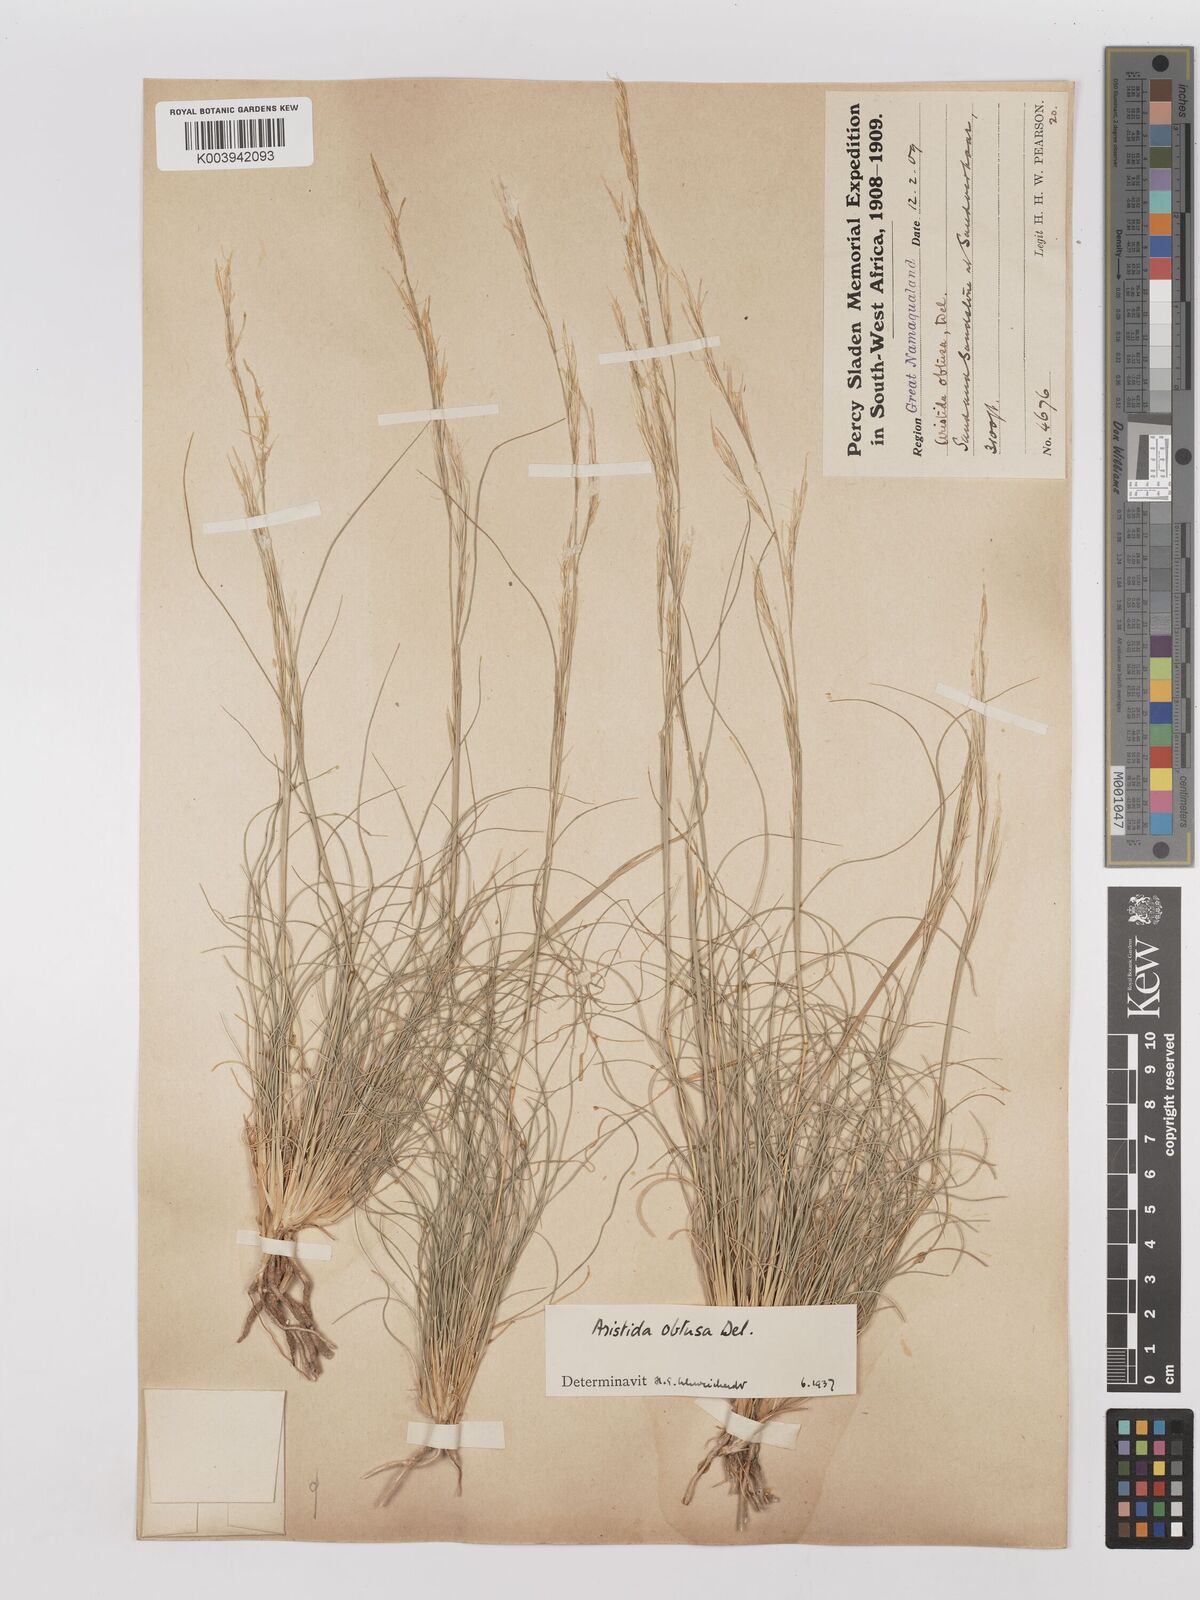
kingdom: Plantae
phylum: Tracheophyta
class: Liliopsida
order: Poales
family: Poaceae
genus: Stipagrostis
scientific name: Stipagrostis obtusa
